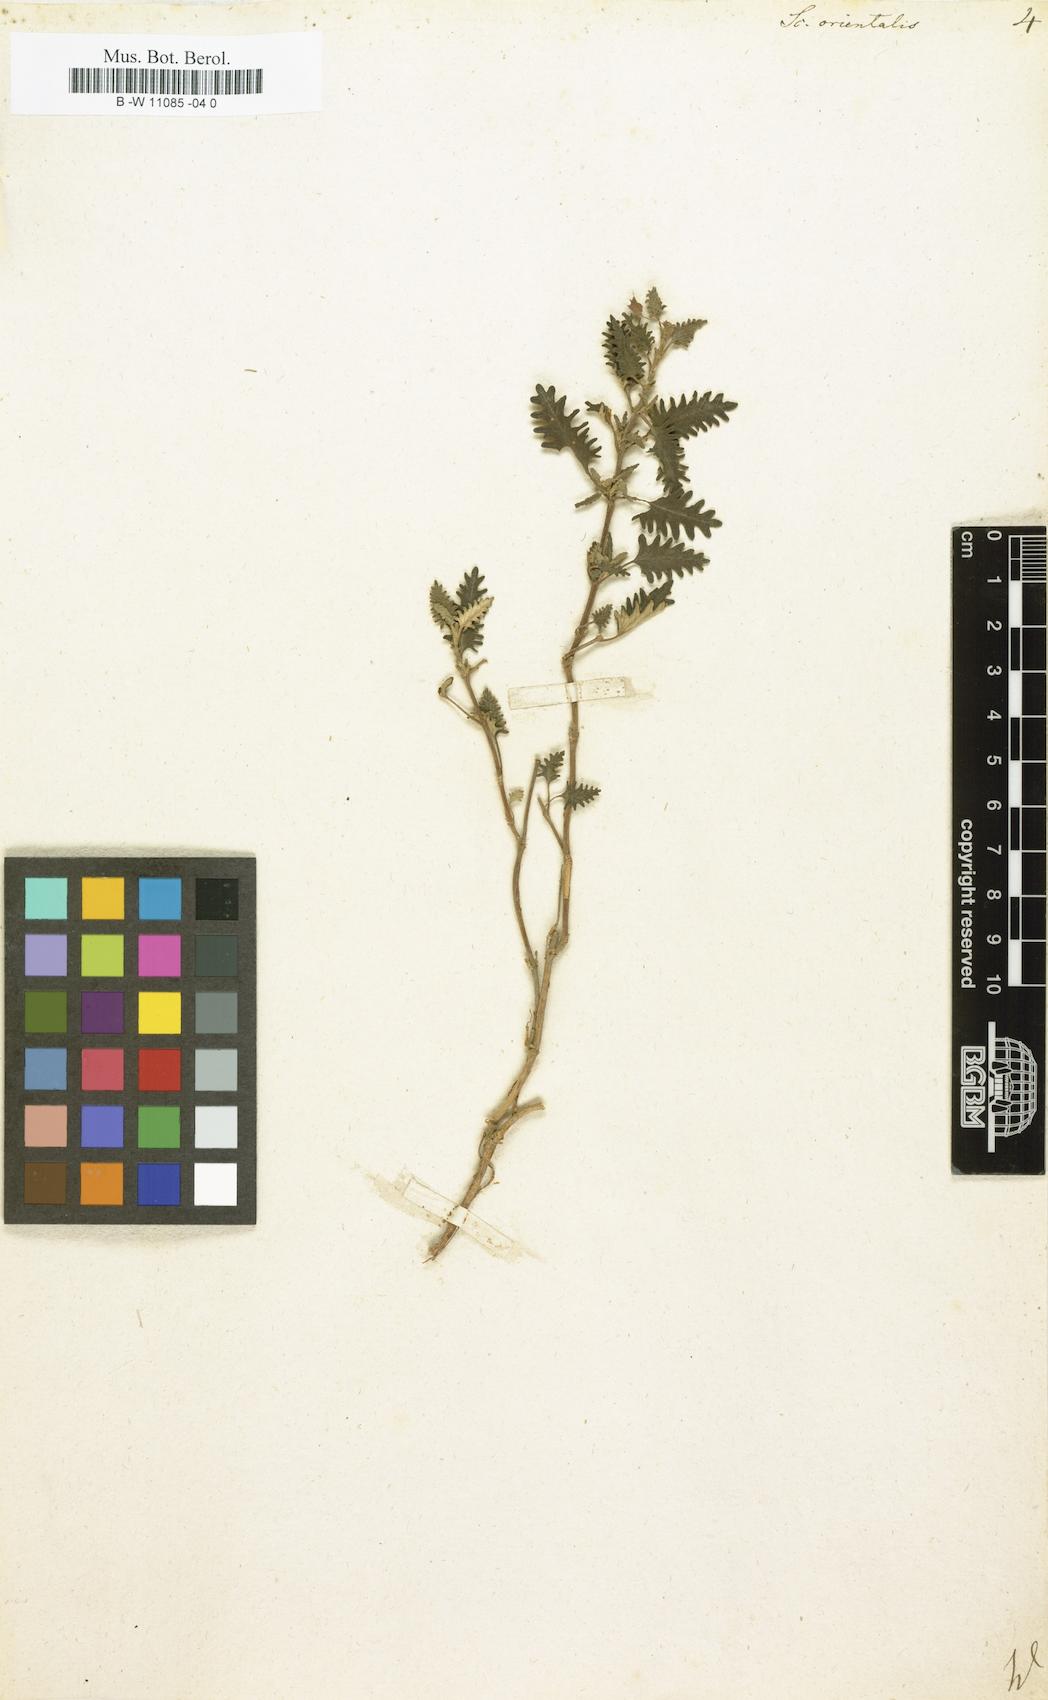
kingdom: Plantae
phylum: Tracheophyta
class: Magnoliopsida
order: Lamiales
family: Lamiaceae
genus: Scutellaria
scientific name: Scutellaria orientalis
